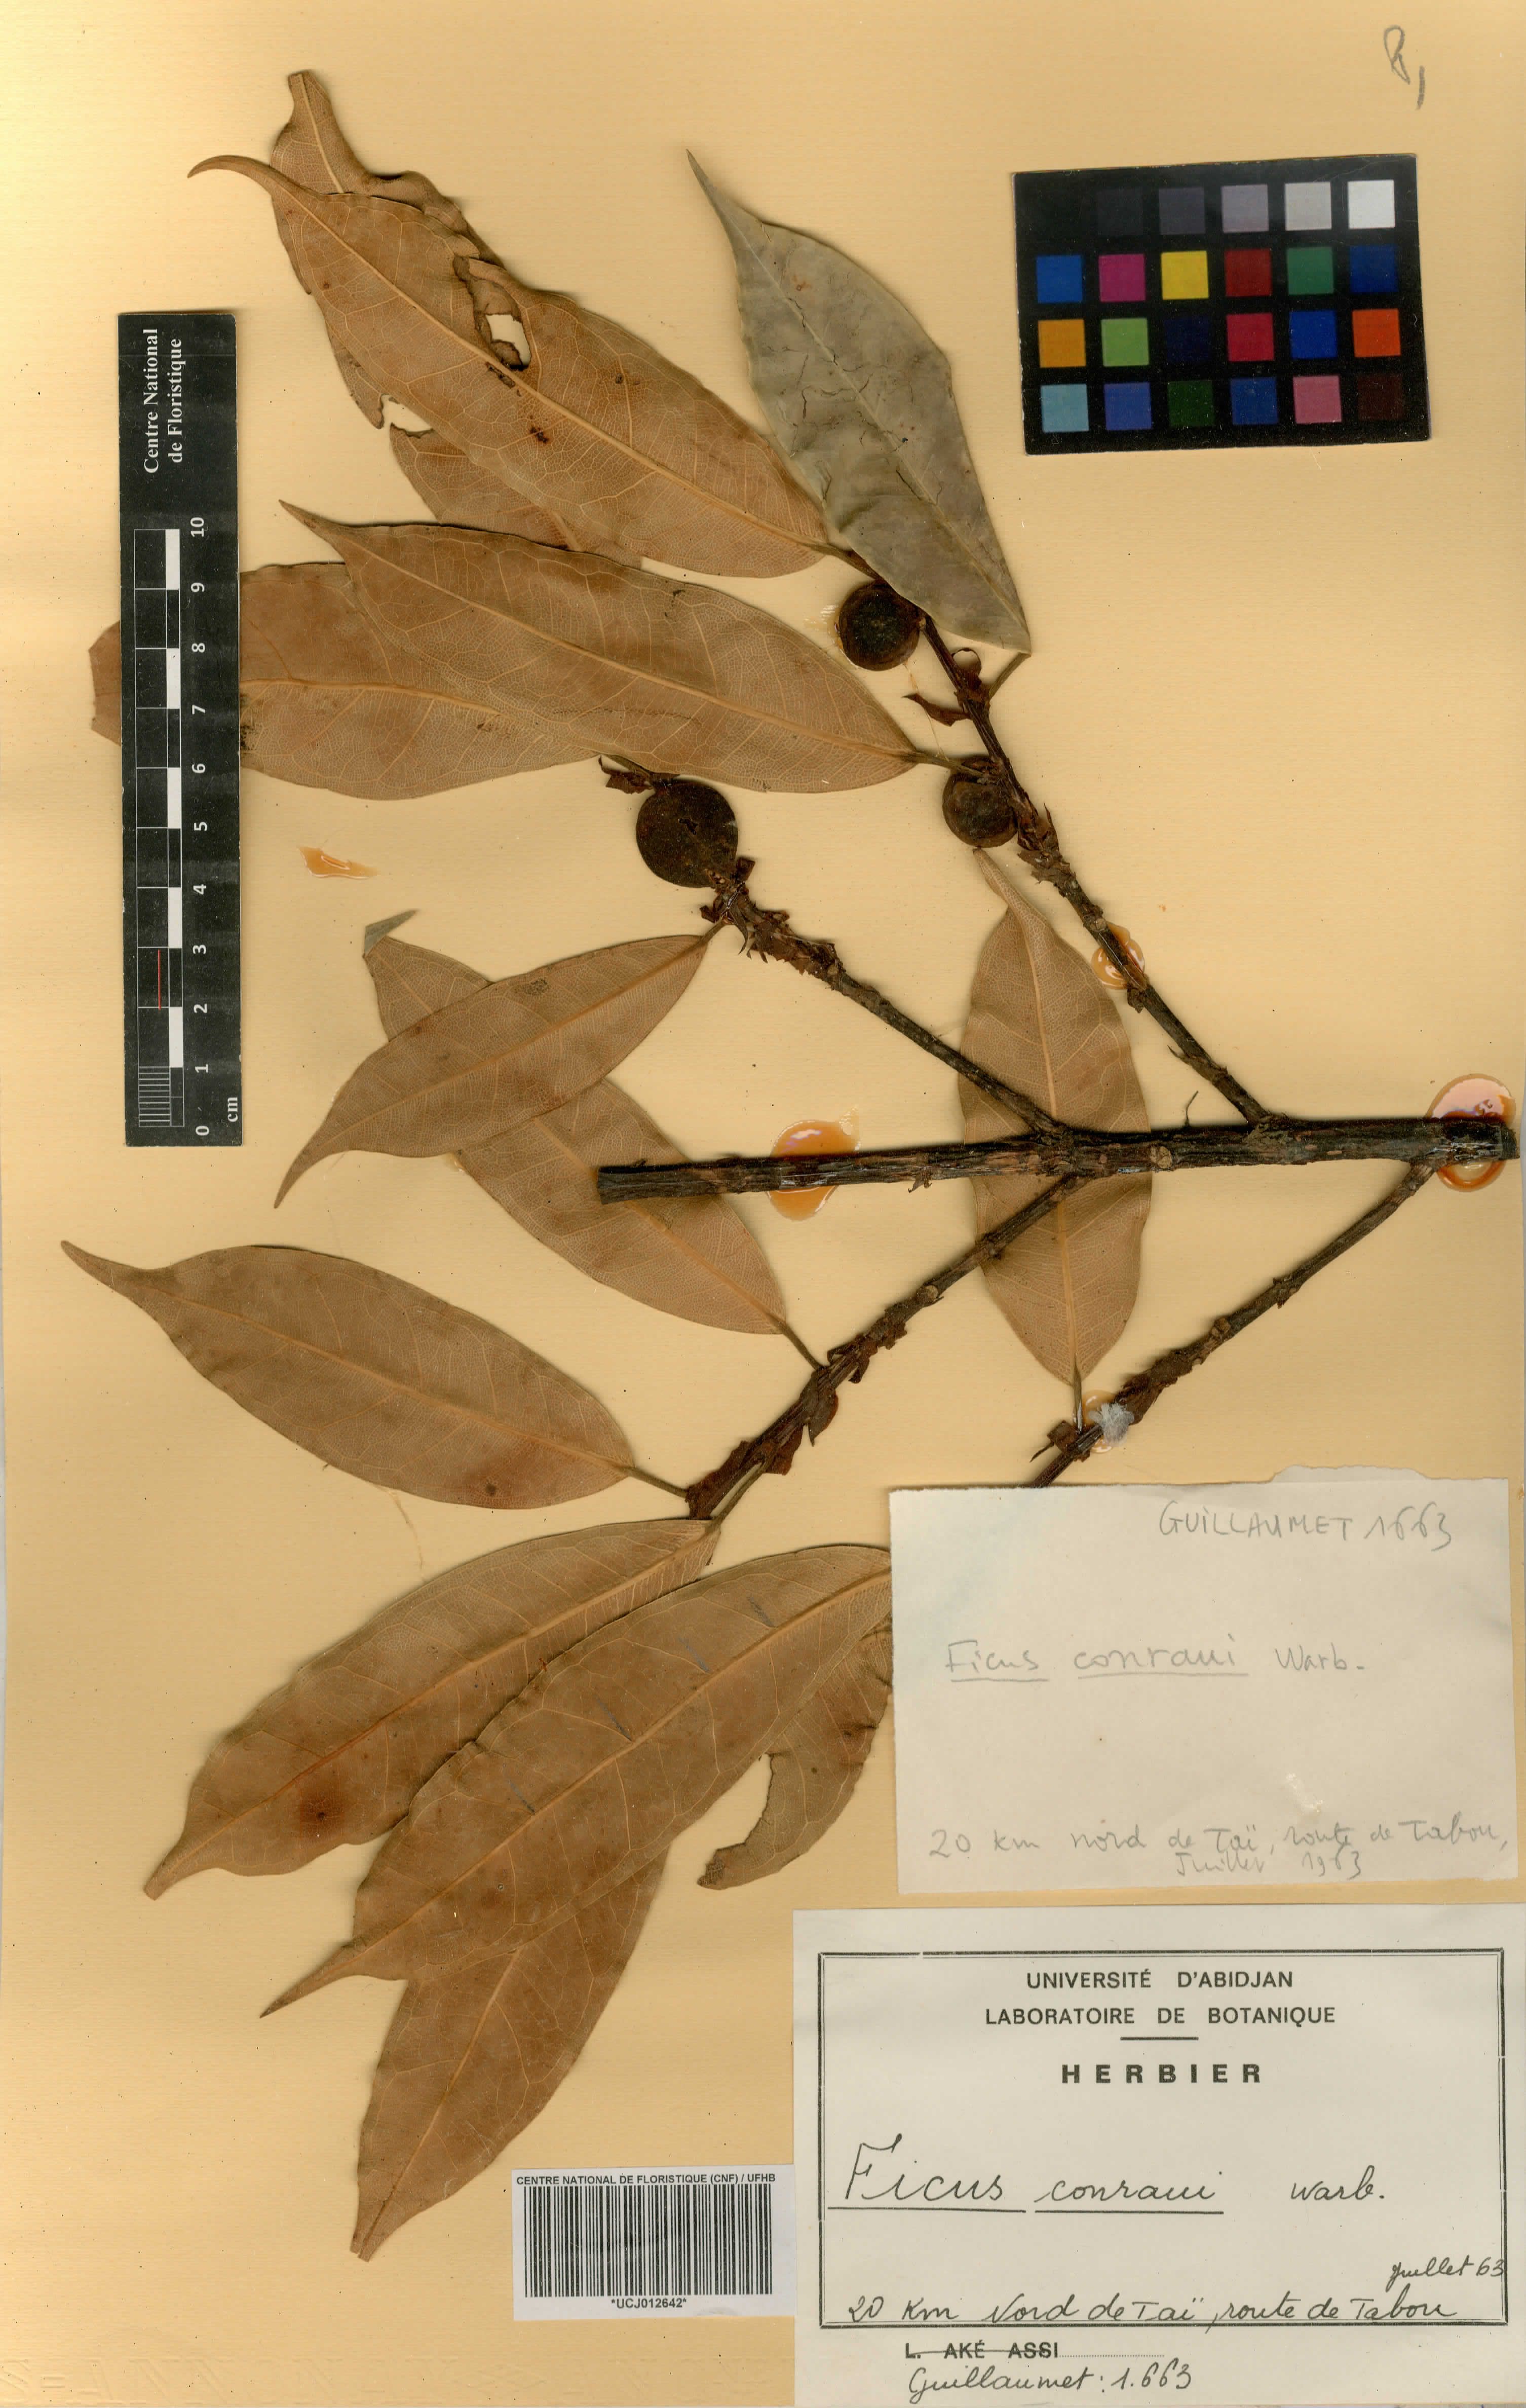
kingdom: Plantae
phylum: Tracheophyta
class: Magnoliopsida
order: Rosales
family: Moraceae
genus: Ficus
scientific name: Ficus conraui
